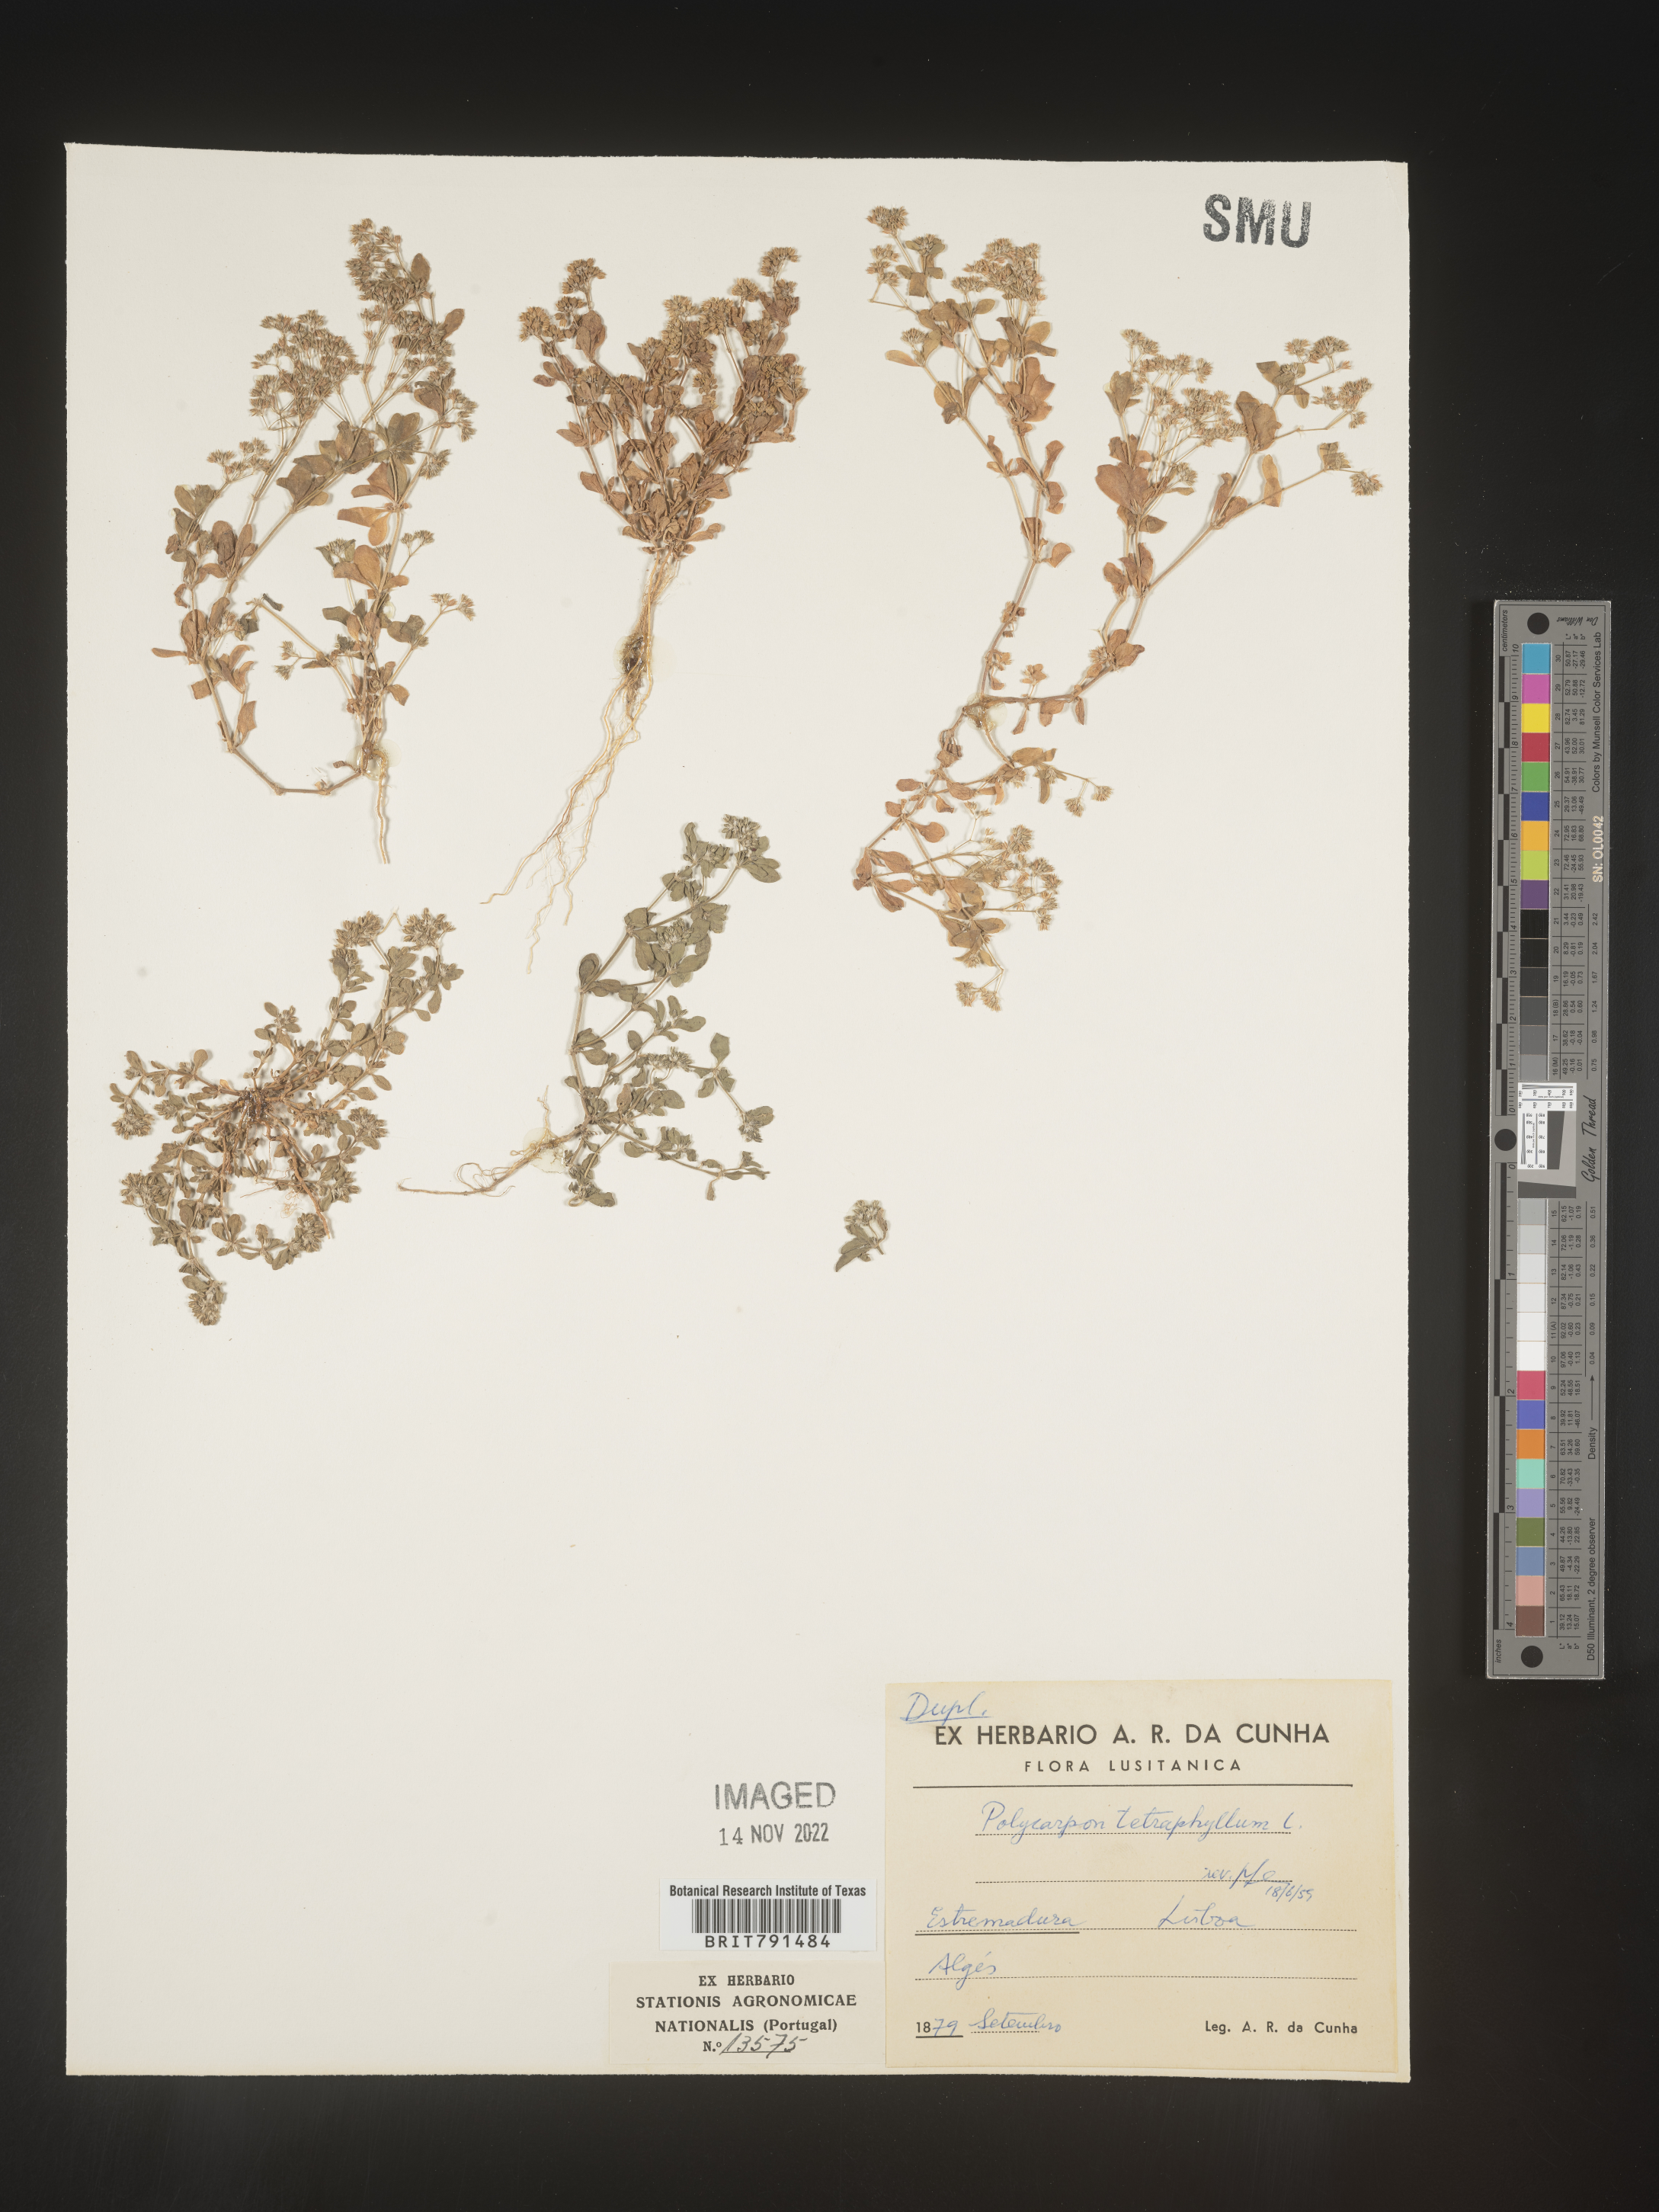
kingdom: Plantae
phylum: Tracheophyta
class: Magnoliopsida
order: Caryophyllales
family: Caryophyllaceae
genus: Polycarpon
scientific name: Polycarpon
